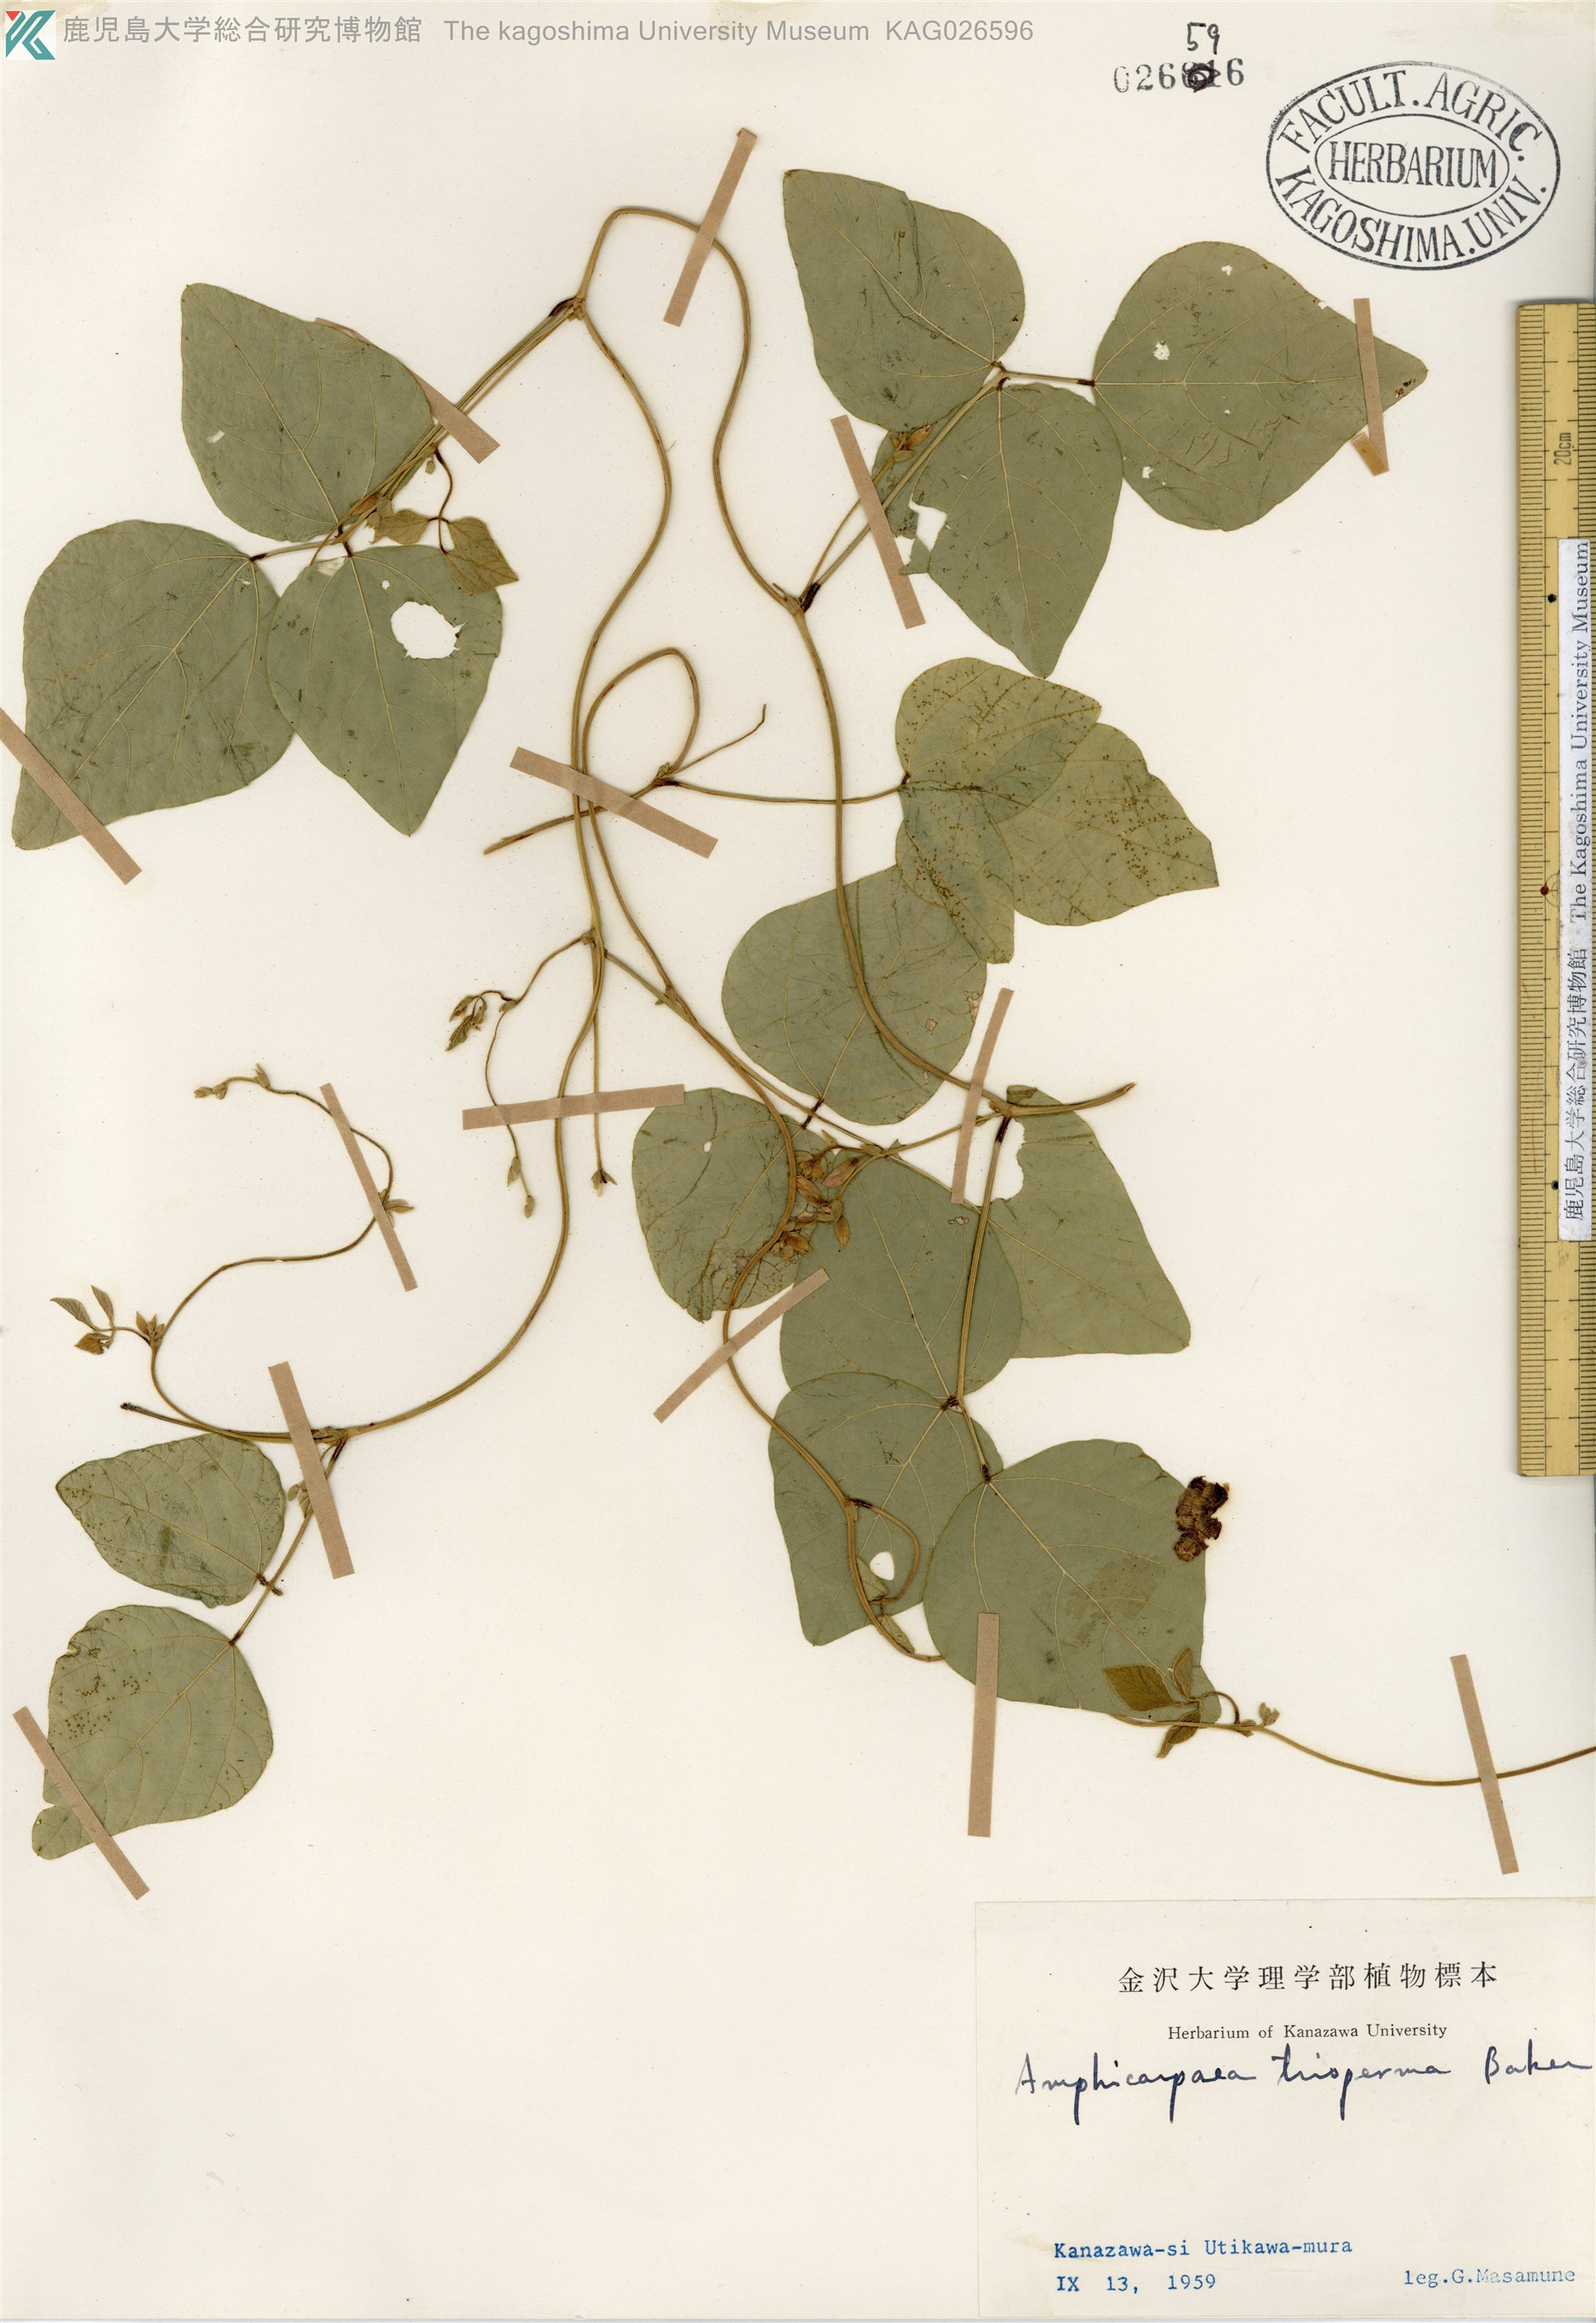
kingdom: Plantae
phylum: Tracheophyta
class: Magnoliopsida
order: Fabales
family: Fabaceae
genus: Amphicarpaea
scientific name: Amphicarpaea edgeworthii
